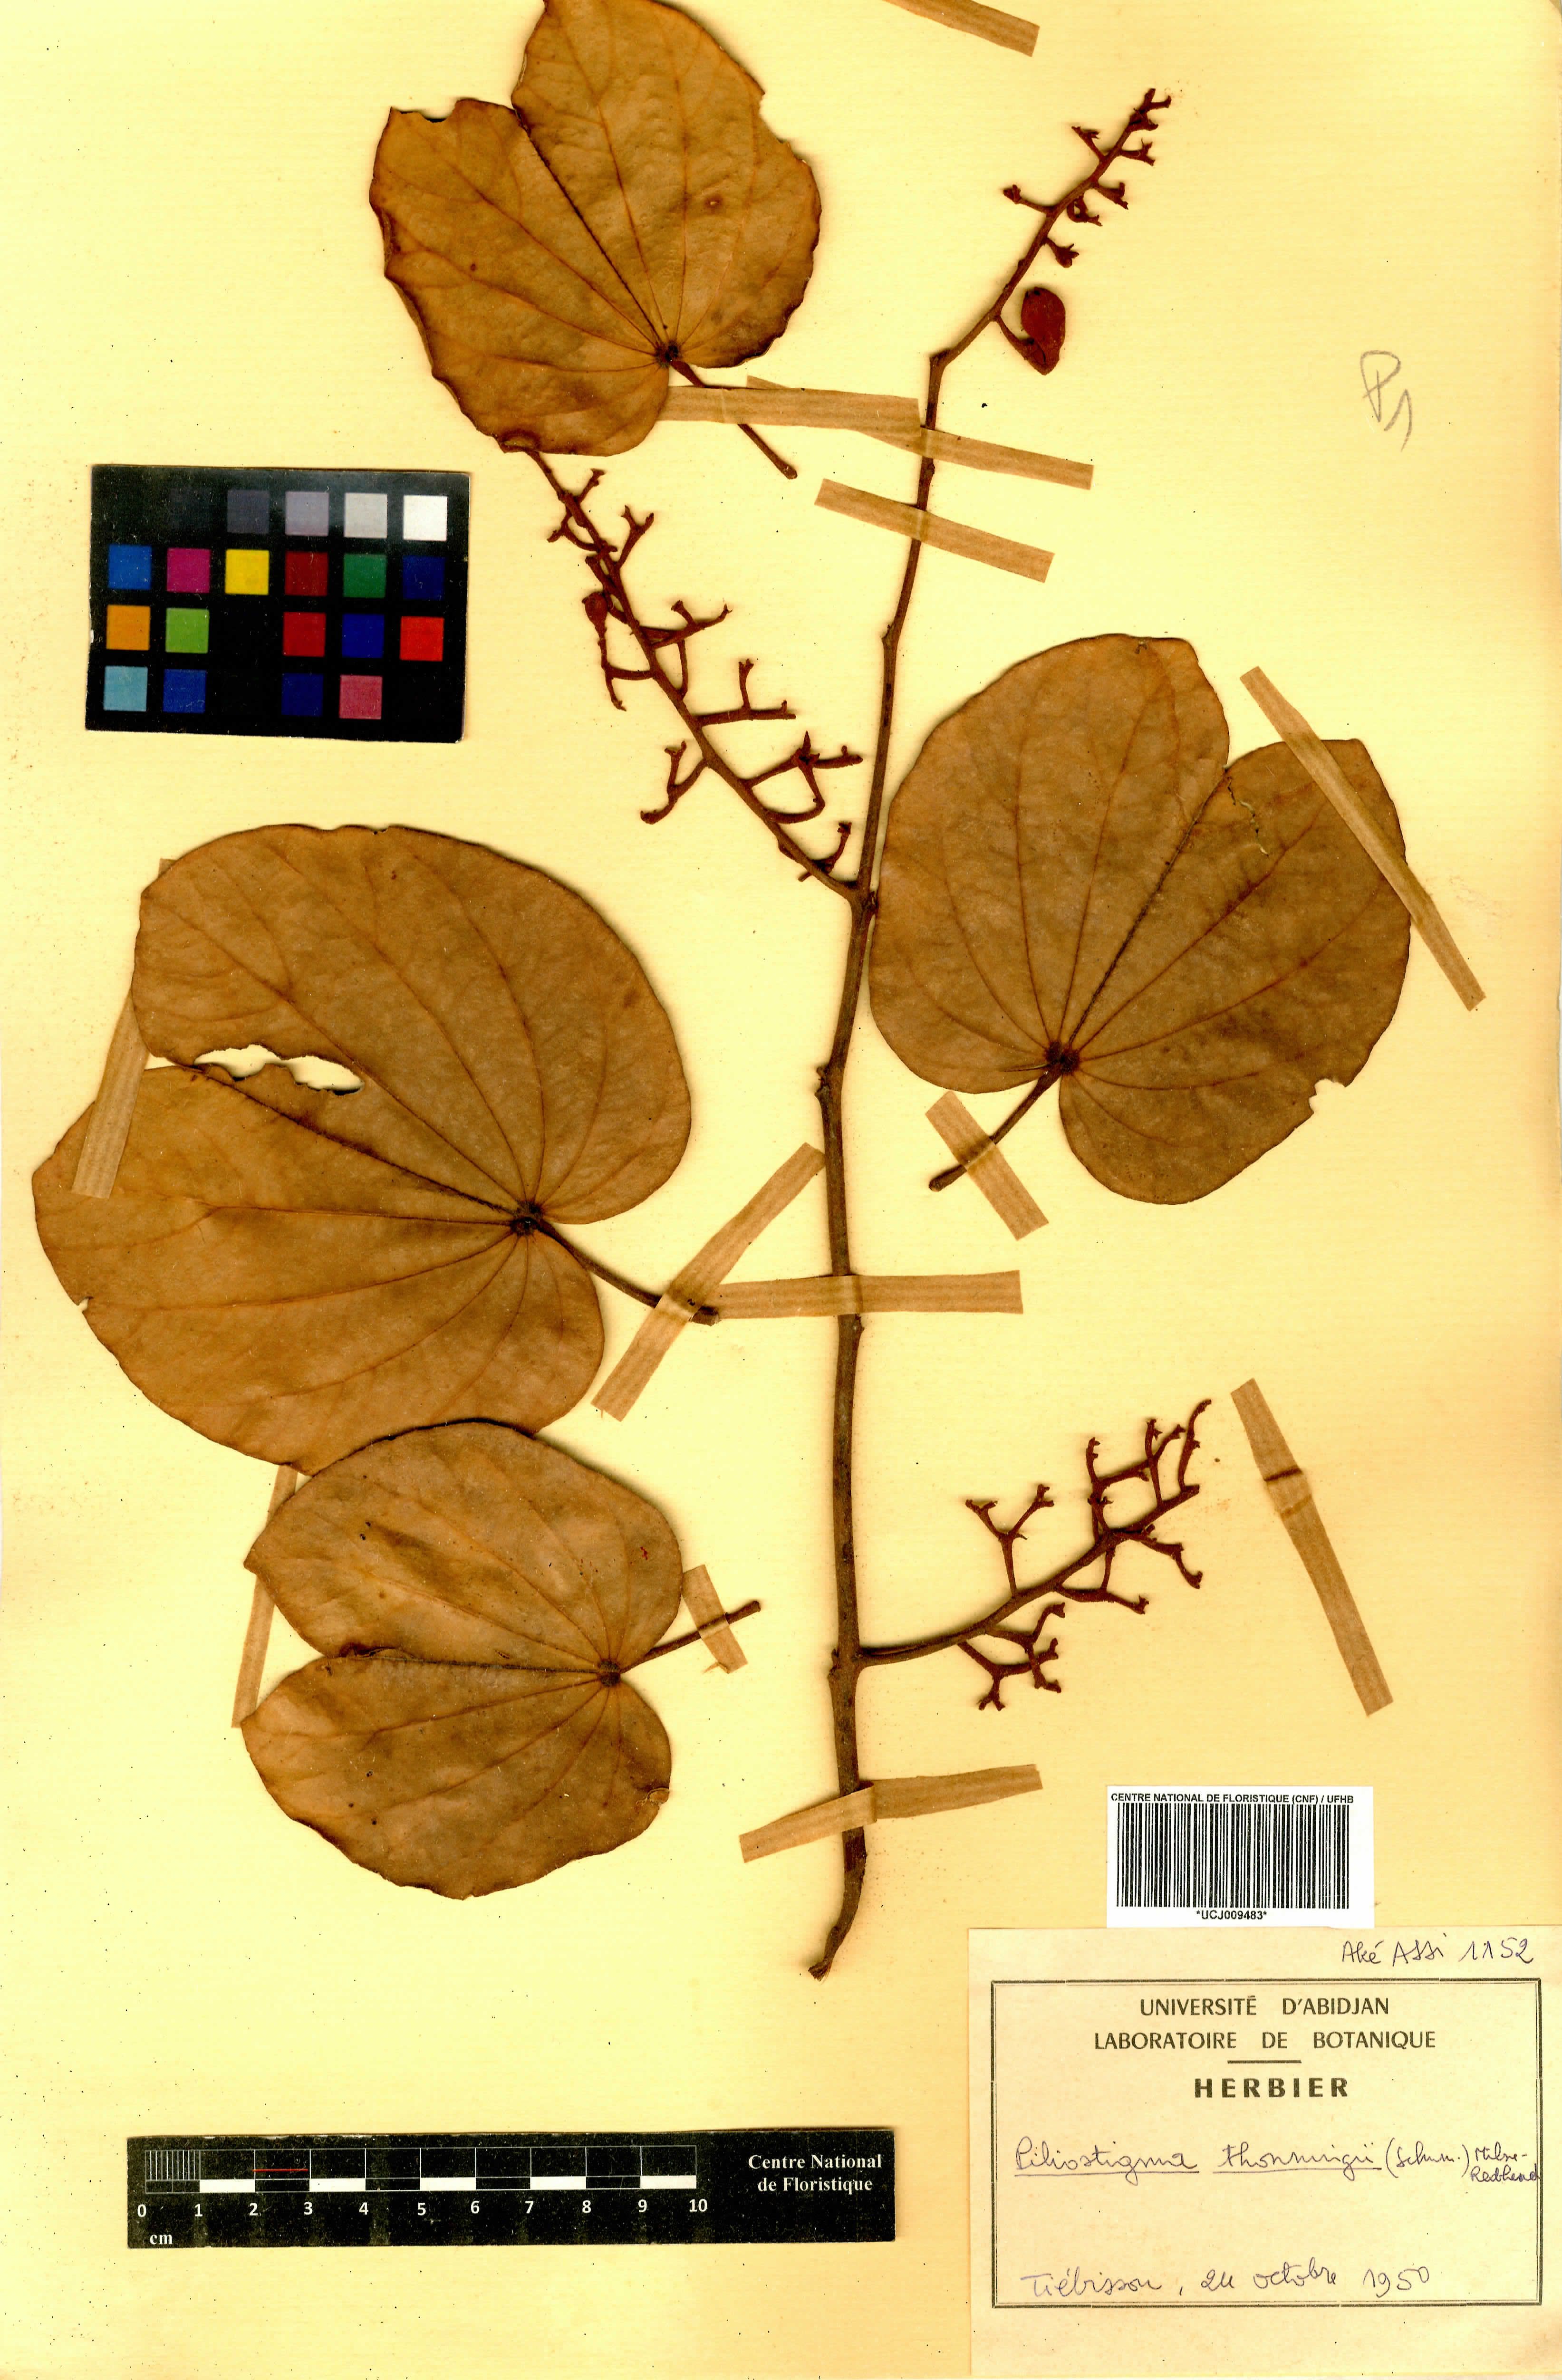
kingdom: Plantae
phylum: Tracheophyta
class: Magnoliopsida
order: Fabales
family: Fabaceae
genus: Piliostigma
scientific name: Piliostigma thonningii
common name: Kao
